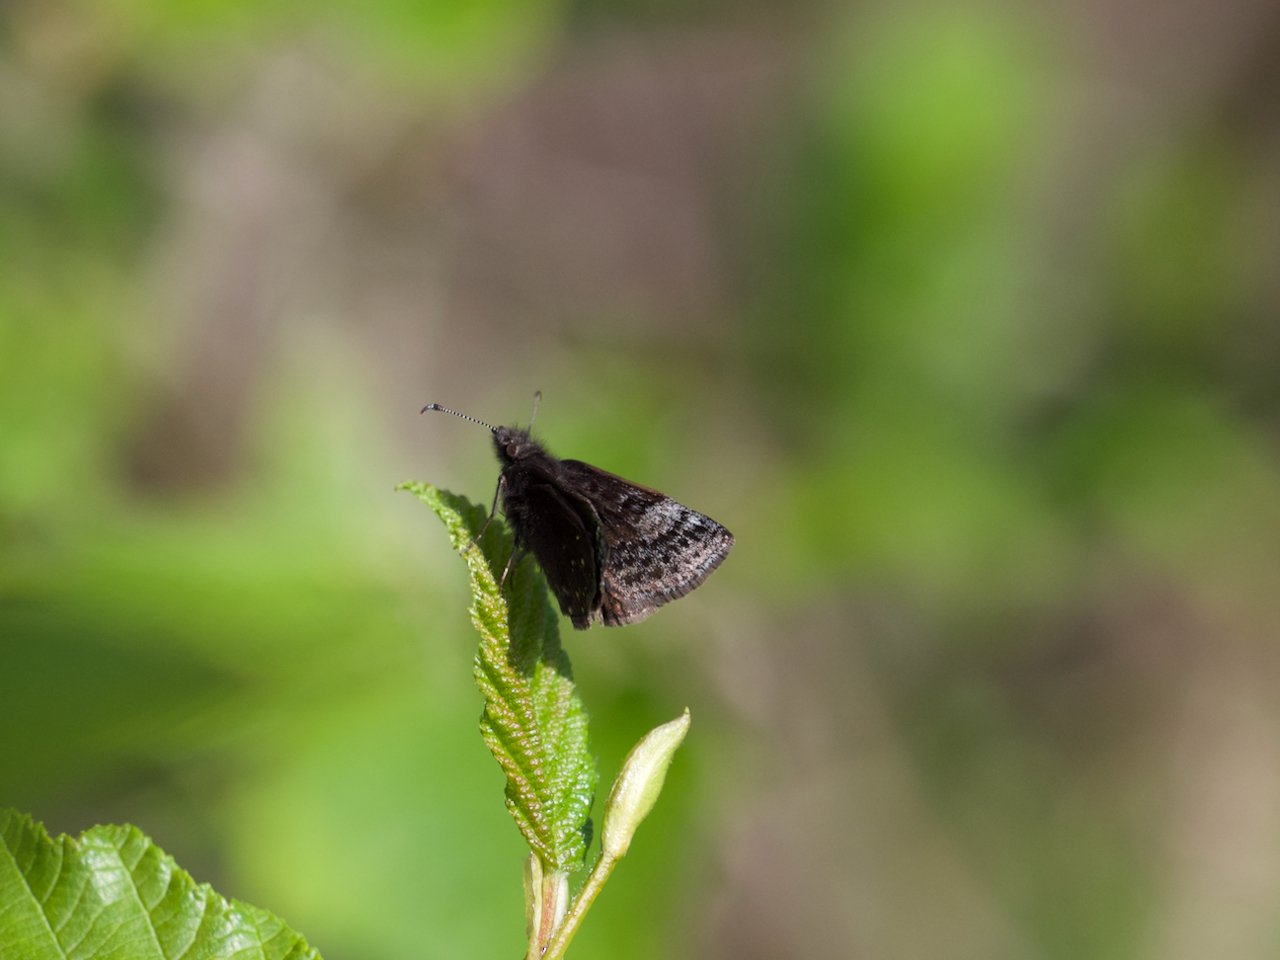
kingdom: Animalia
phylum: Arthropoda
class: Insecta
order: Lepidoptera
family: Hesperiidae
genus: Erynnis
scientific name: Erynnis icelus
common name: Dreamy Duskywing
